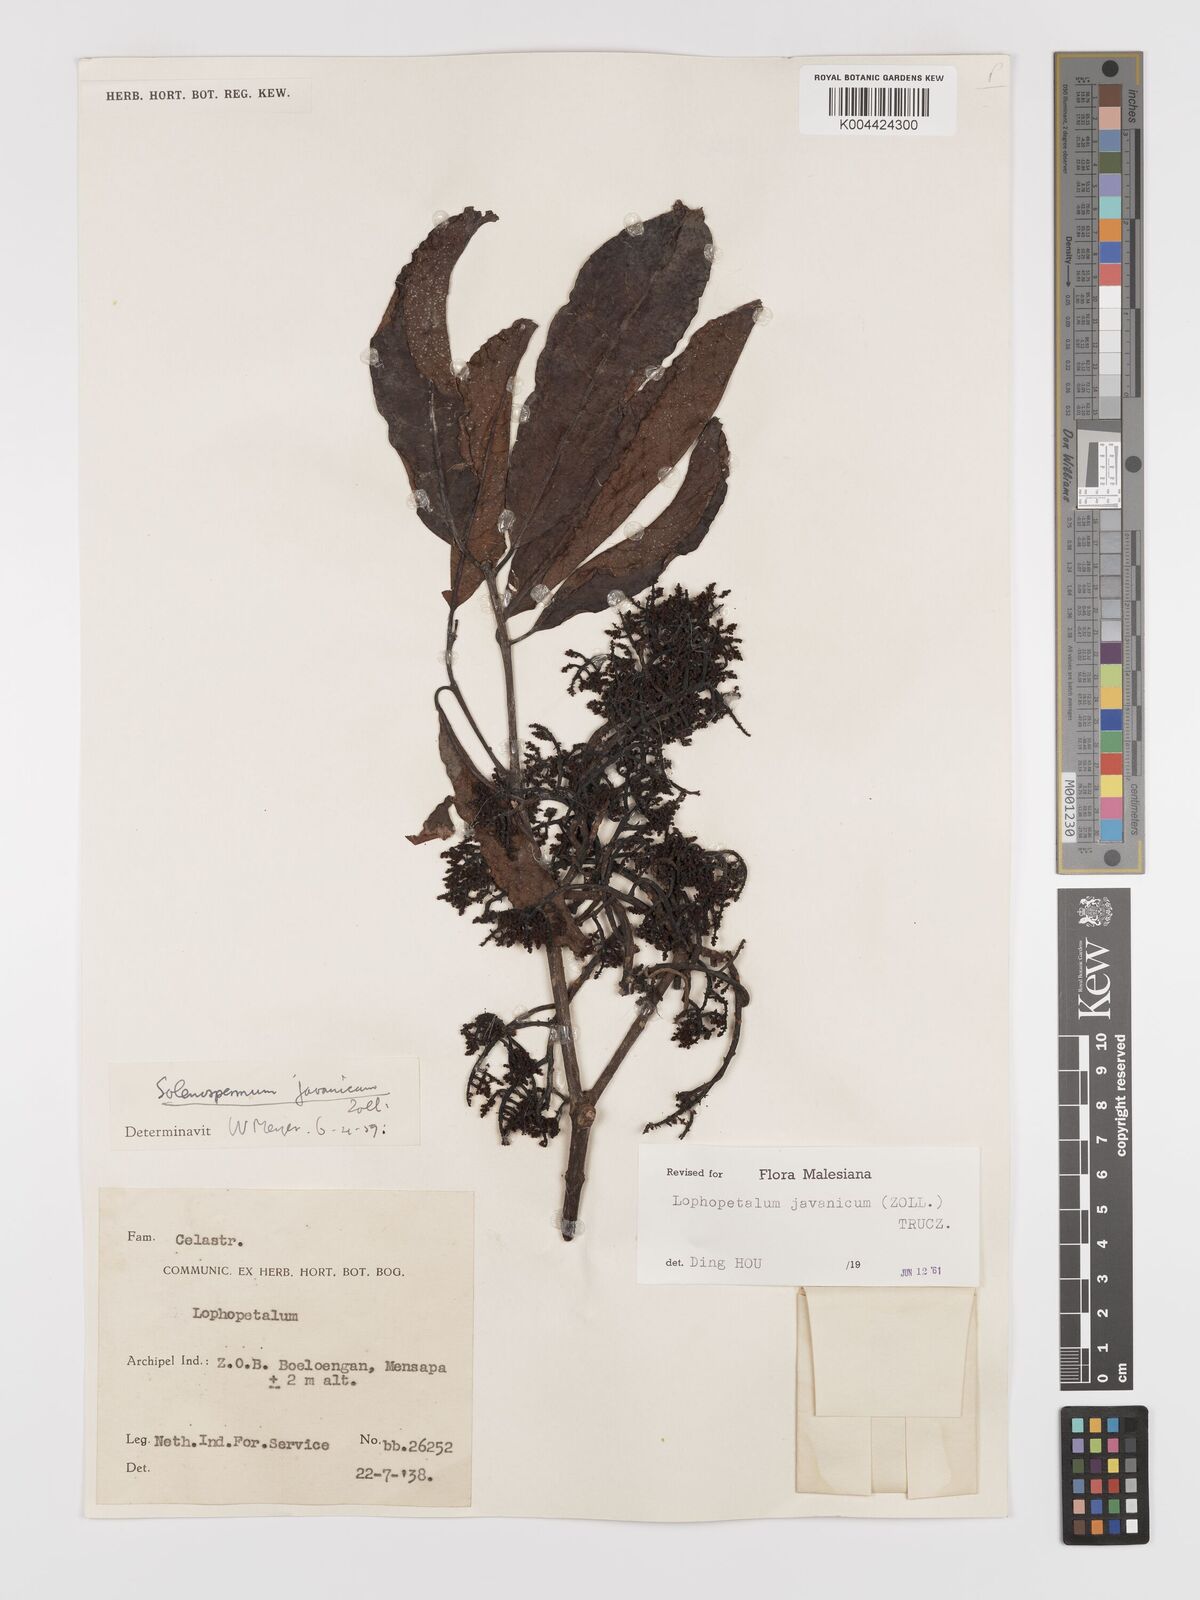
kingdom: Plantae
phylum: Tracheophyta
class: Magnoliopsida
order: Celastrales
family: Celastraceae
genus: Lophopetalum
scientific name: Lophopetalum javanicum
